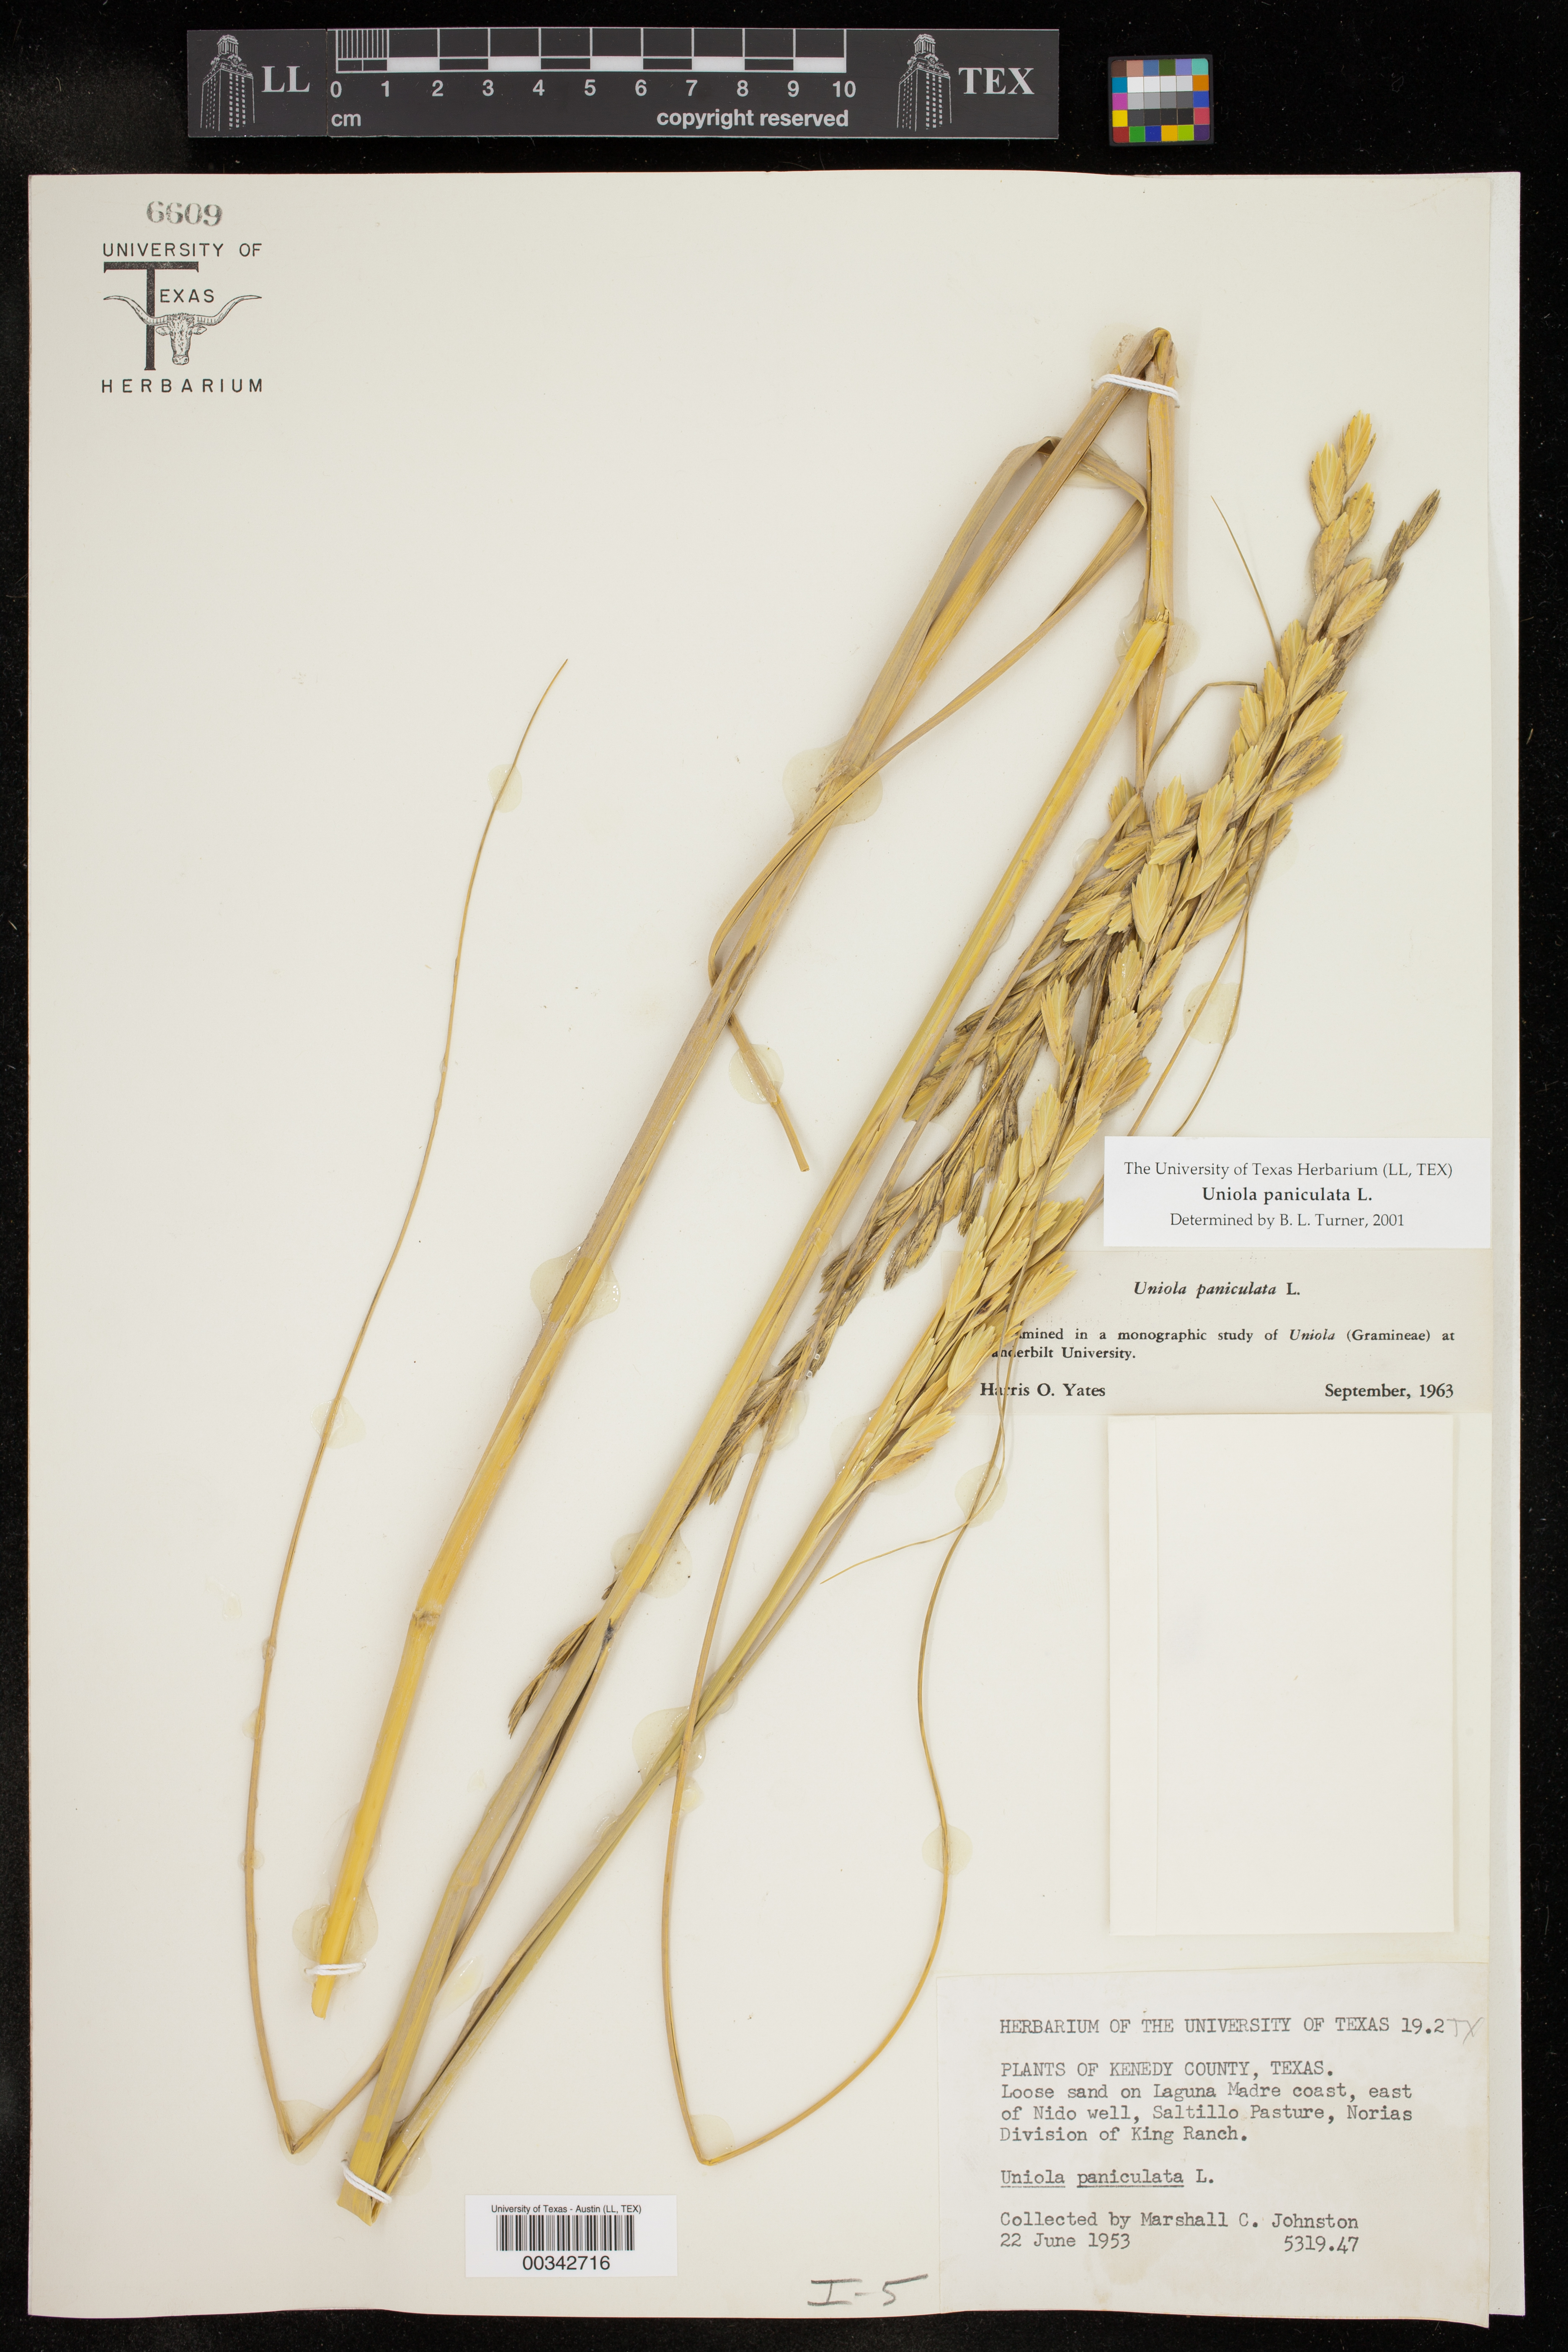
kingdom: Plantae
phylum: Tracheophyta
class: Liliopsida
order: Poales
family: Poaceae
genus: Uniola
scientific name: Uniola paniculata
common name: Seaside-oats
